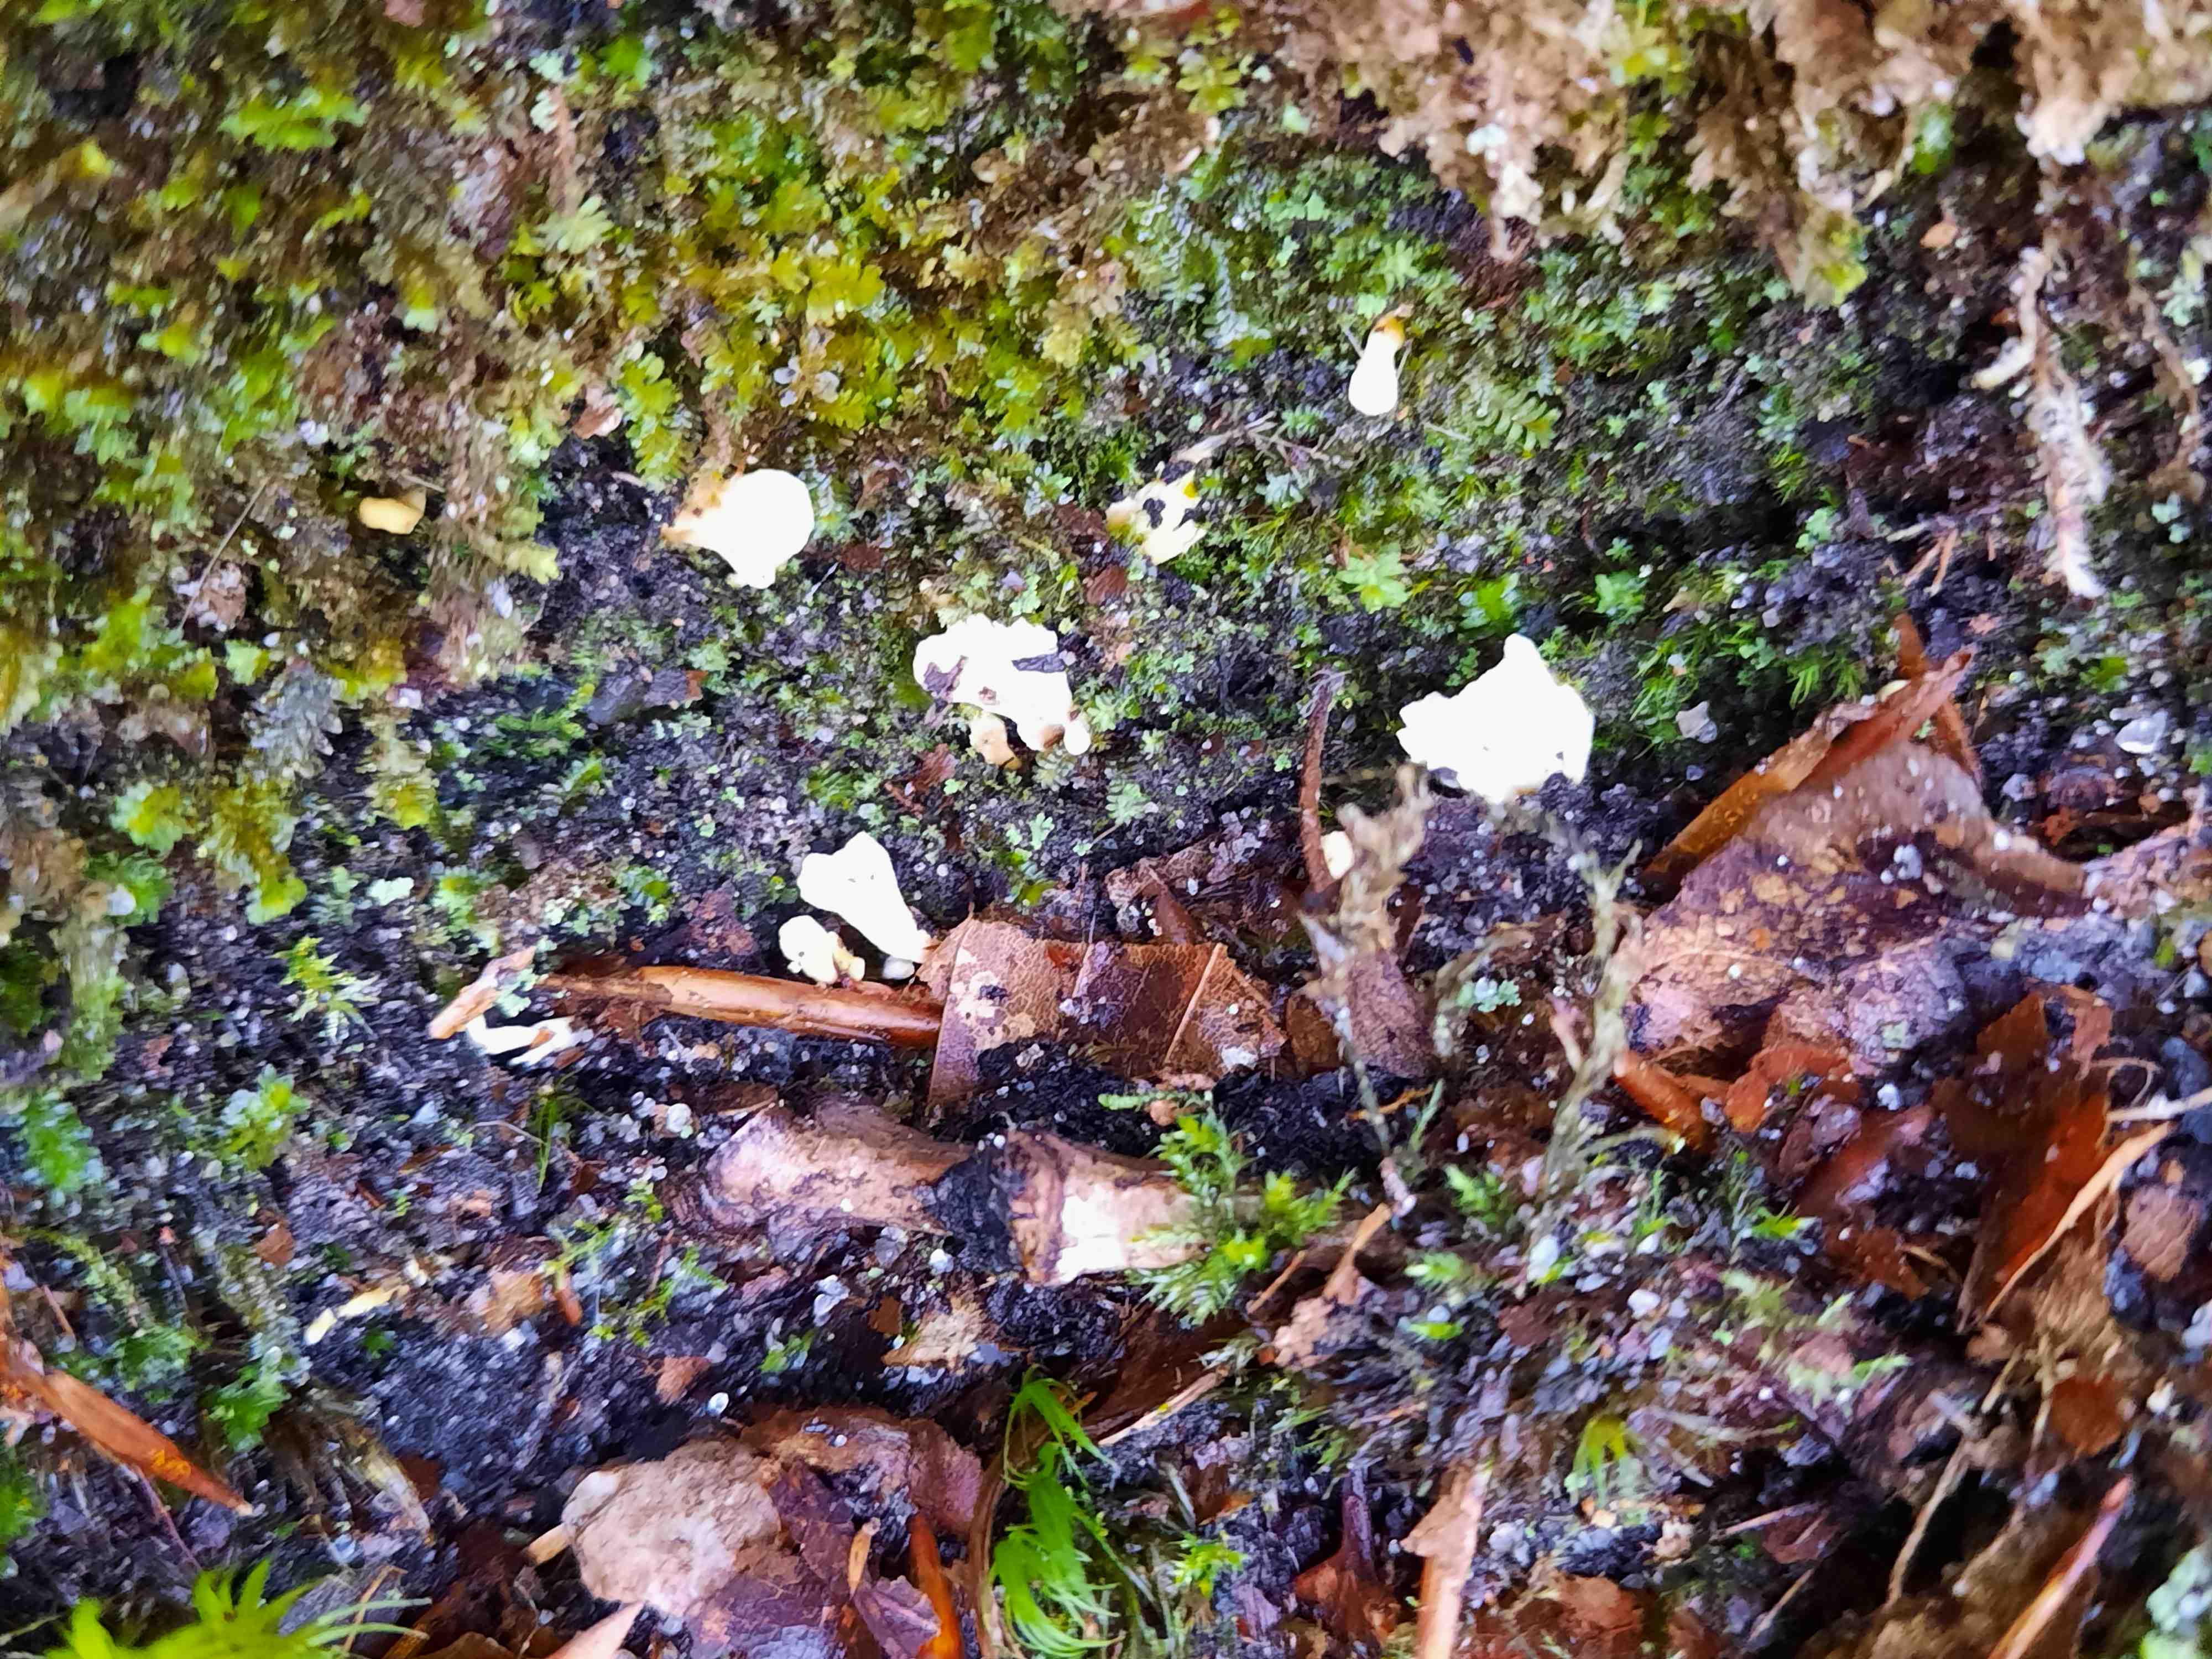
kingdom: Fungi
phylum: Basidiomycota
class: Agaricomycetes
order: Stereopsidales
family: Stereopsidaceae
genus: Stereopsis
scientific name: Stereopsis vitellina
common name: stilklædersvamp
